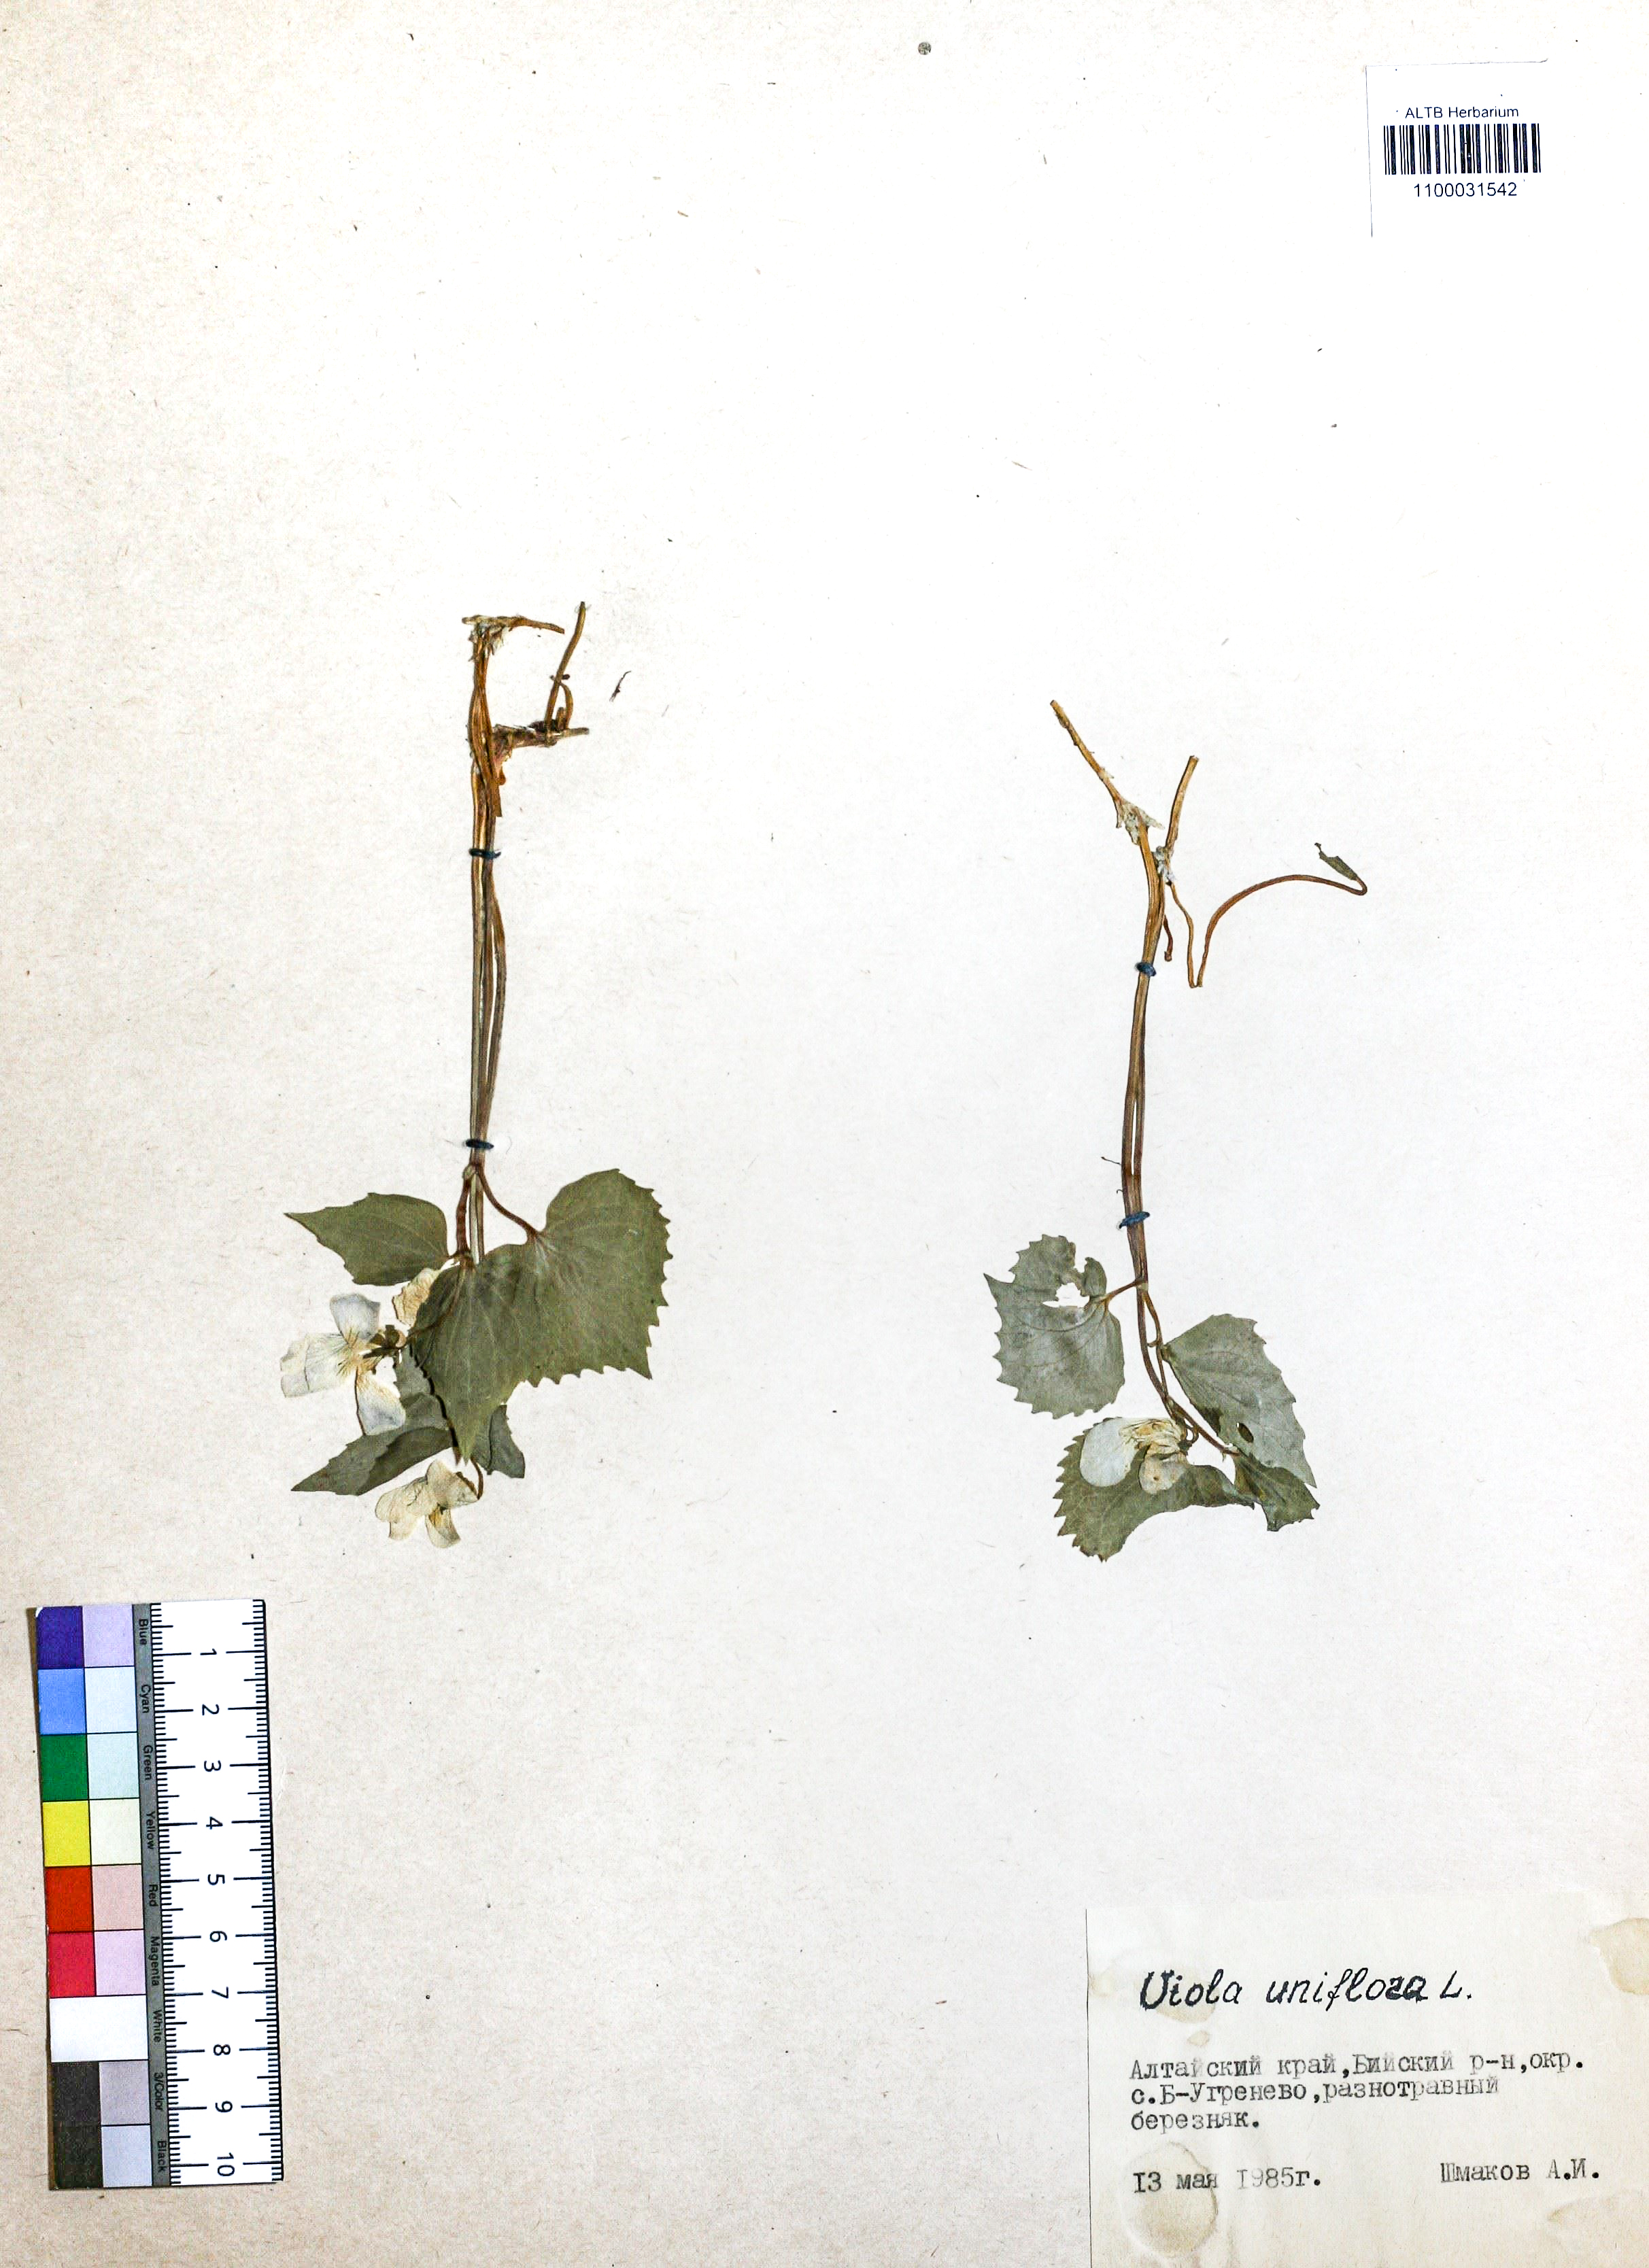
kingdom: Plantae
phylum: Tracheophyta
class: Magnoliopsida
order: Malpighiales
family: Violaceae
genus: Viola
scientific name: Viola uniflora
